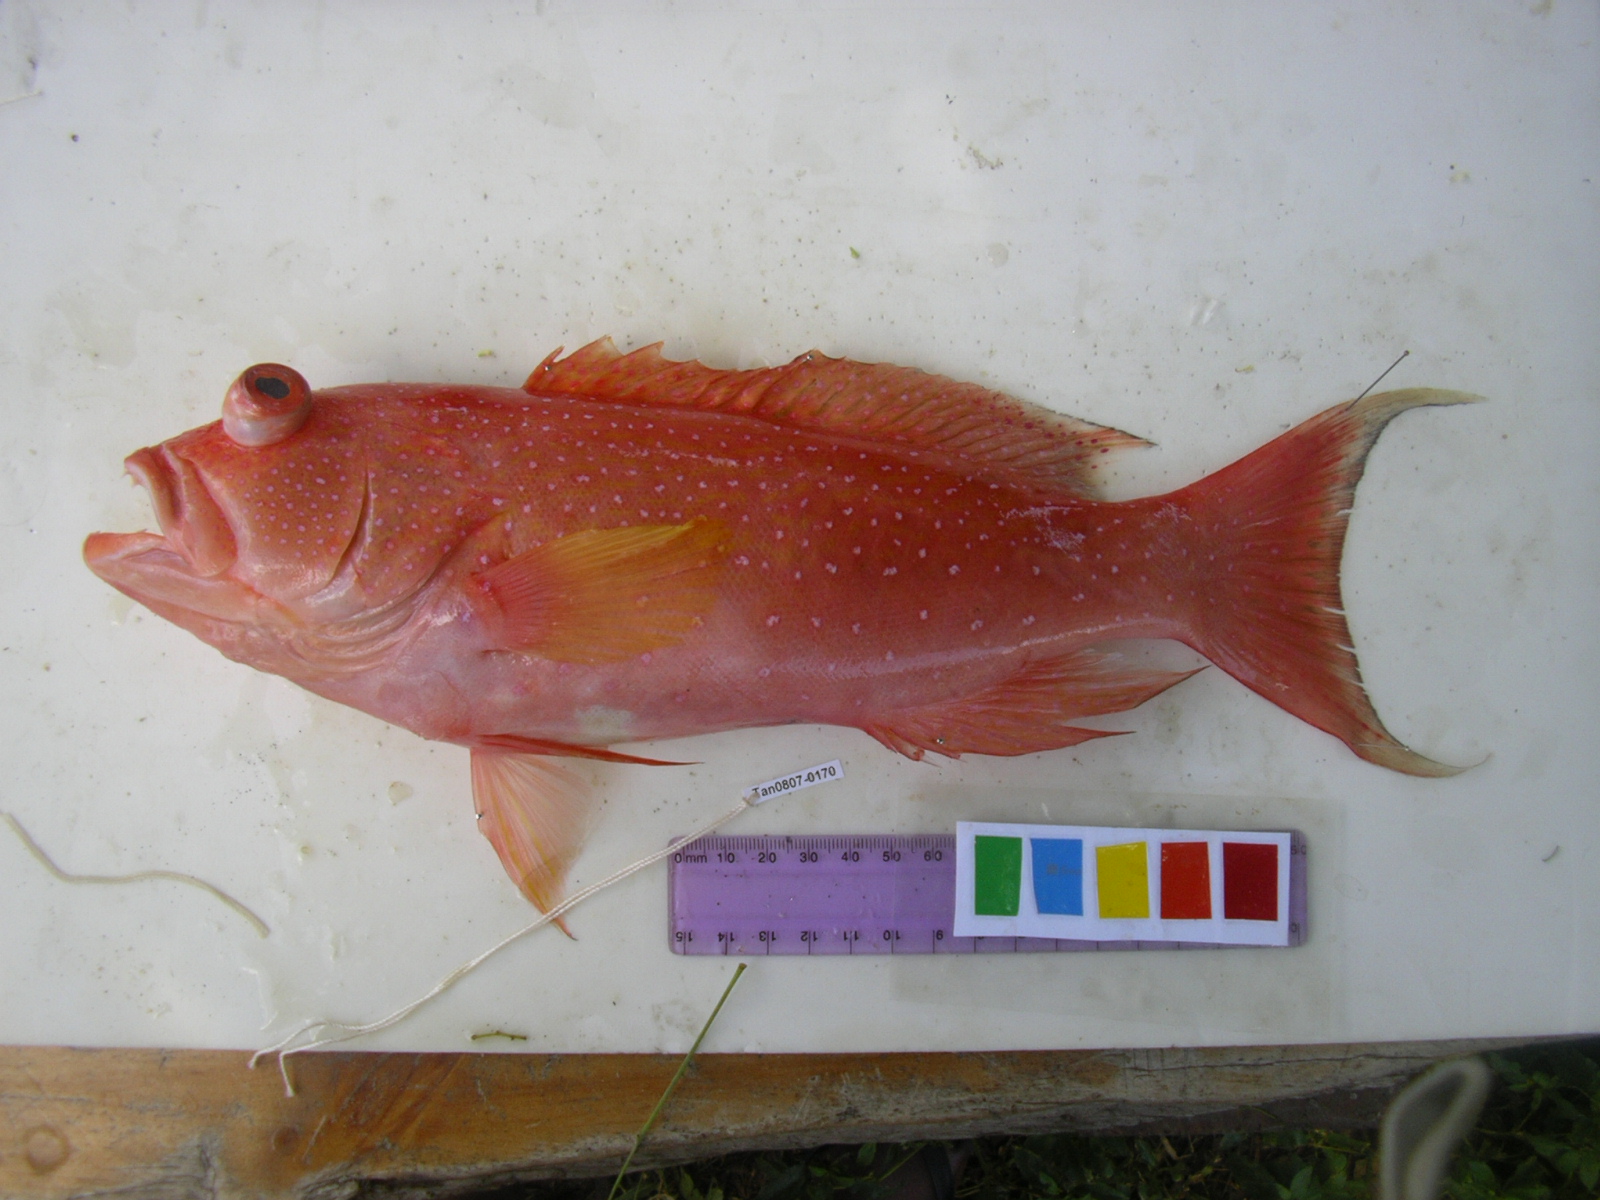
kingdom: Animalia
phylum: Chordata
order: Perciformes
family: Serranidae
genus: Variola
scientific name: Variola albimarginata
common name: Lunar-tailed grouper
